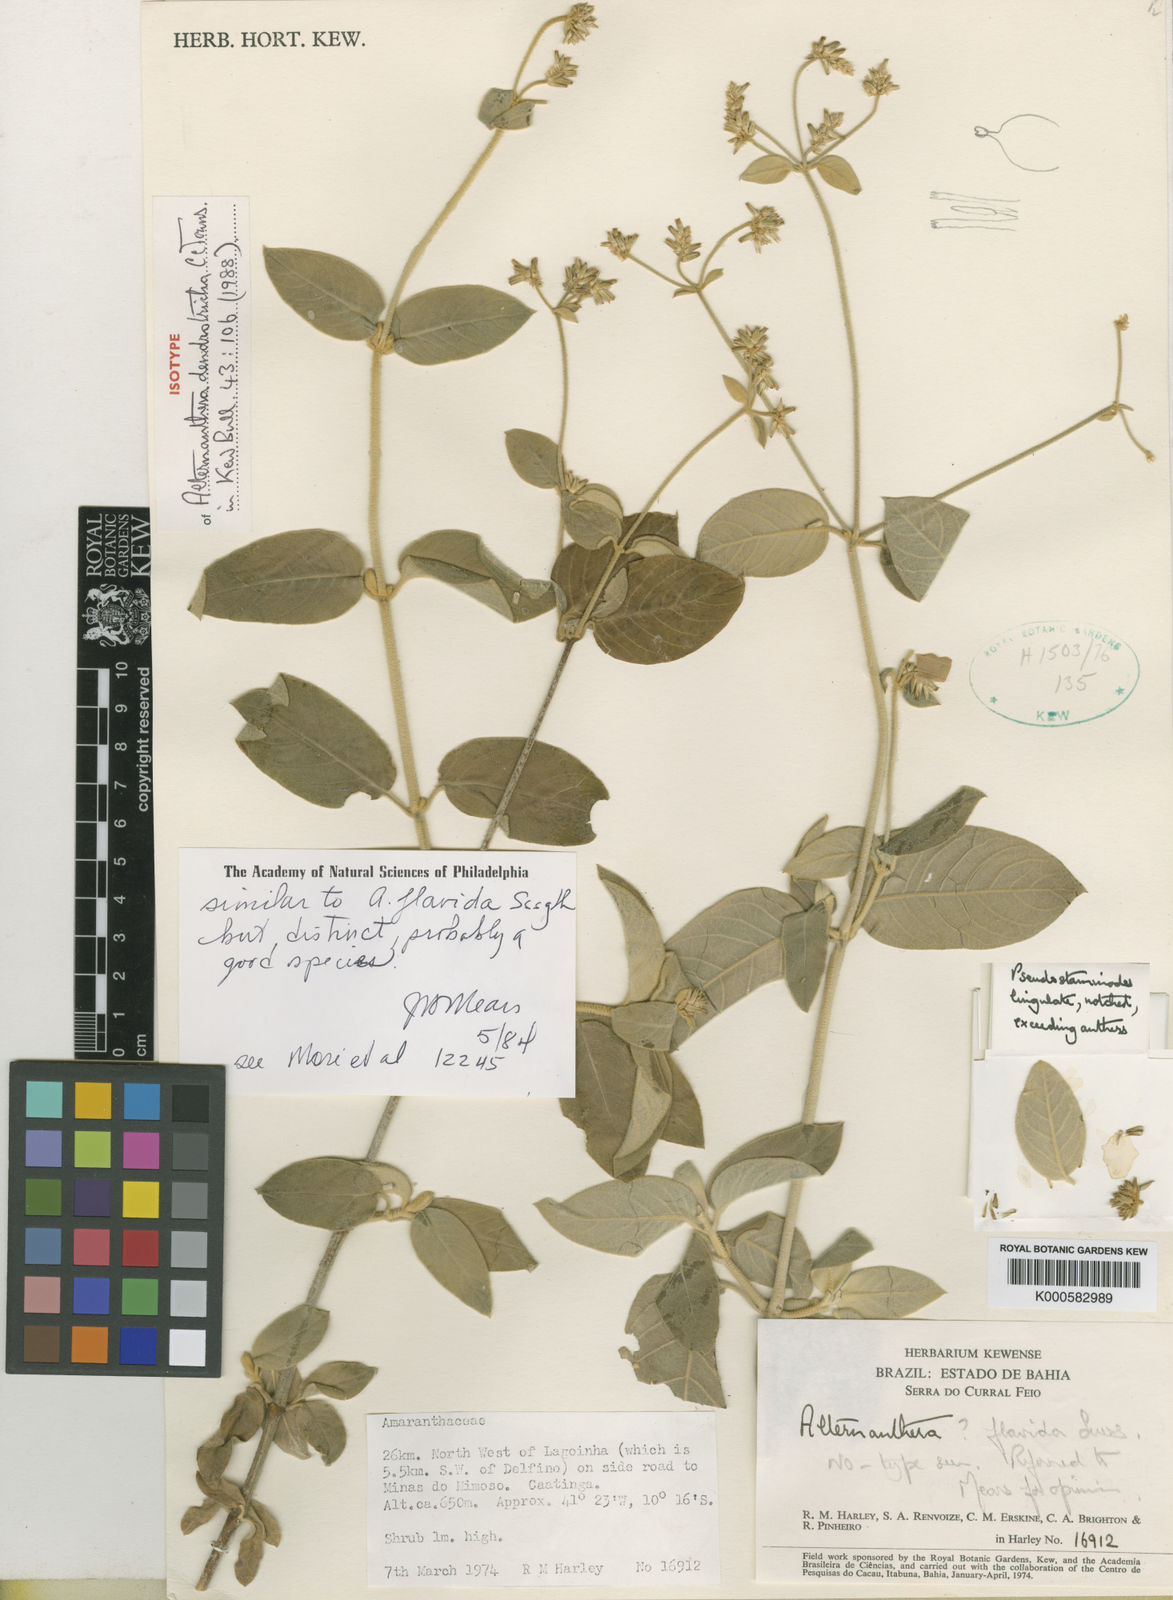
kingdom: Plantae
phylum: Tracheophyta
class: Magnoliopsida
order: Caryophyllales
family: Amaranthaceae
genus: Alternanthera
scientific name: Alternanthera dendrotricha
